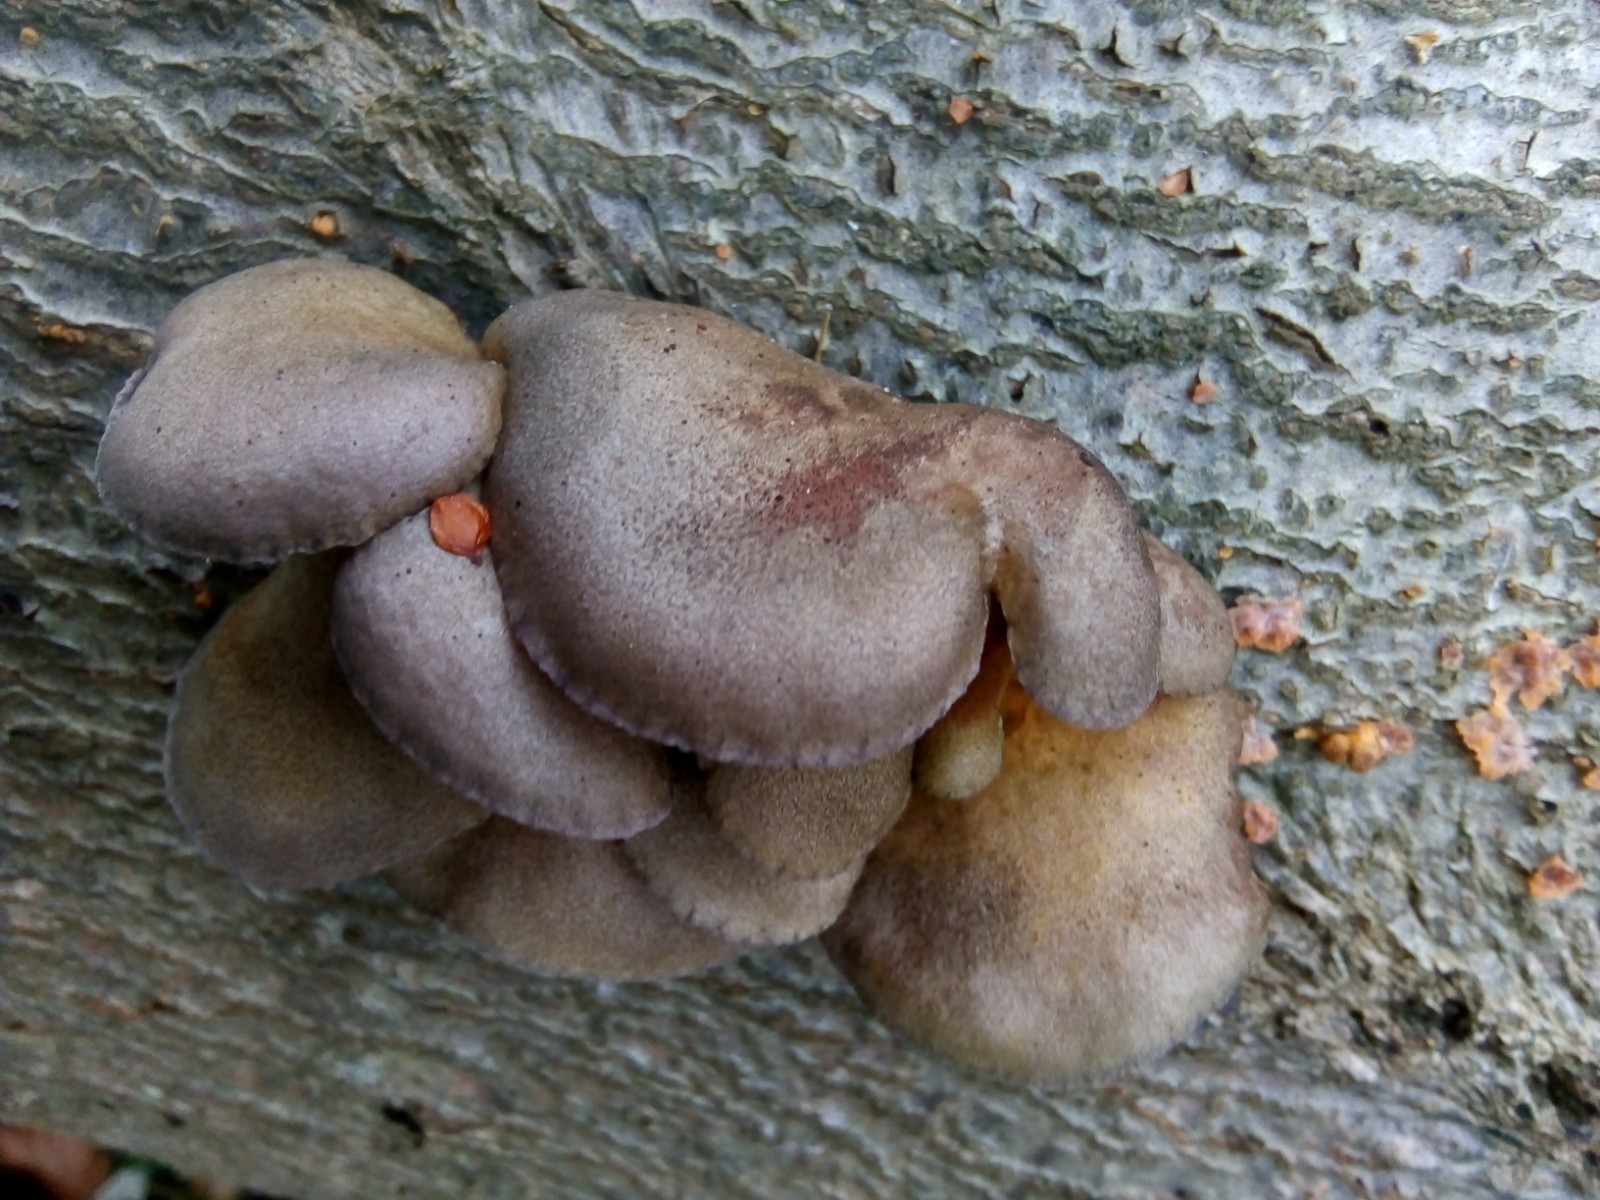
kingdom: Fungi
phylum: Basidiomycota
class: Agaricomycetes
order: Agaricales
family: Sarcomyxaceae
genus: Sarcomyxa
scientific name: Sarcomyxa serotina
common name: gummihat
